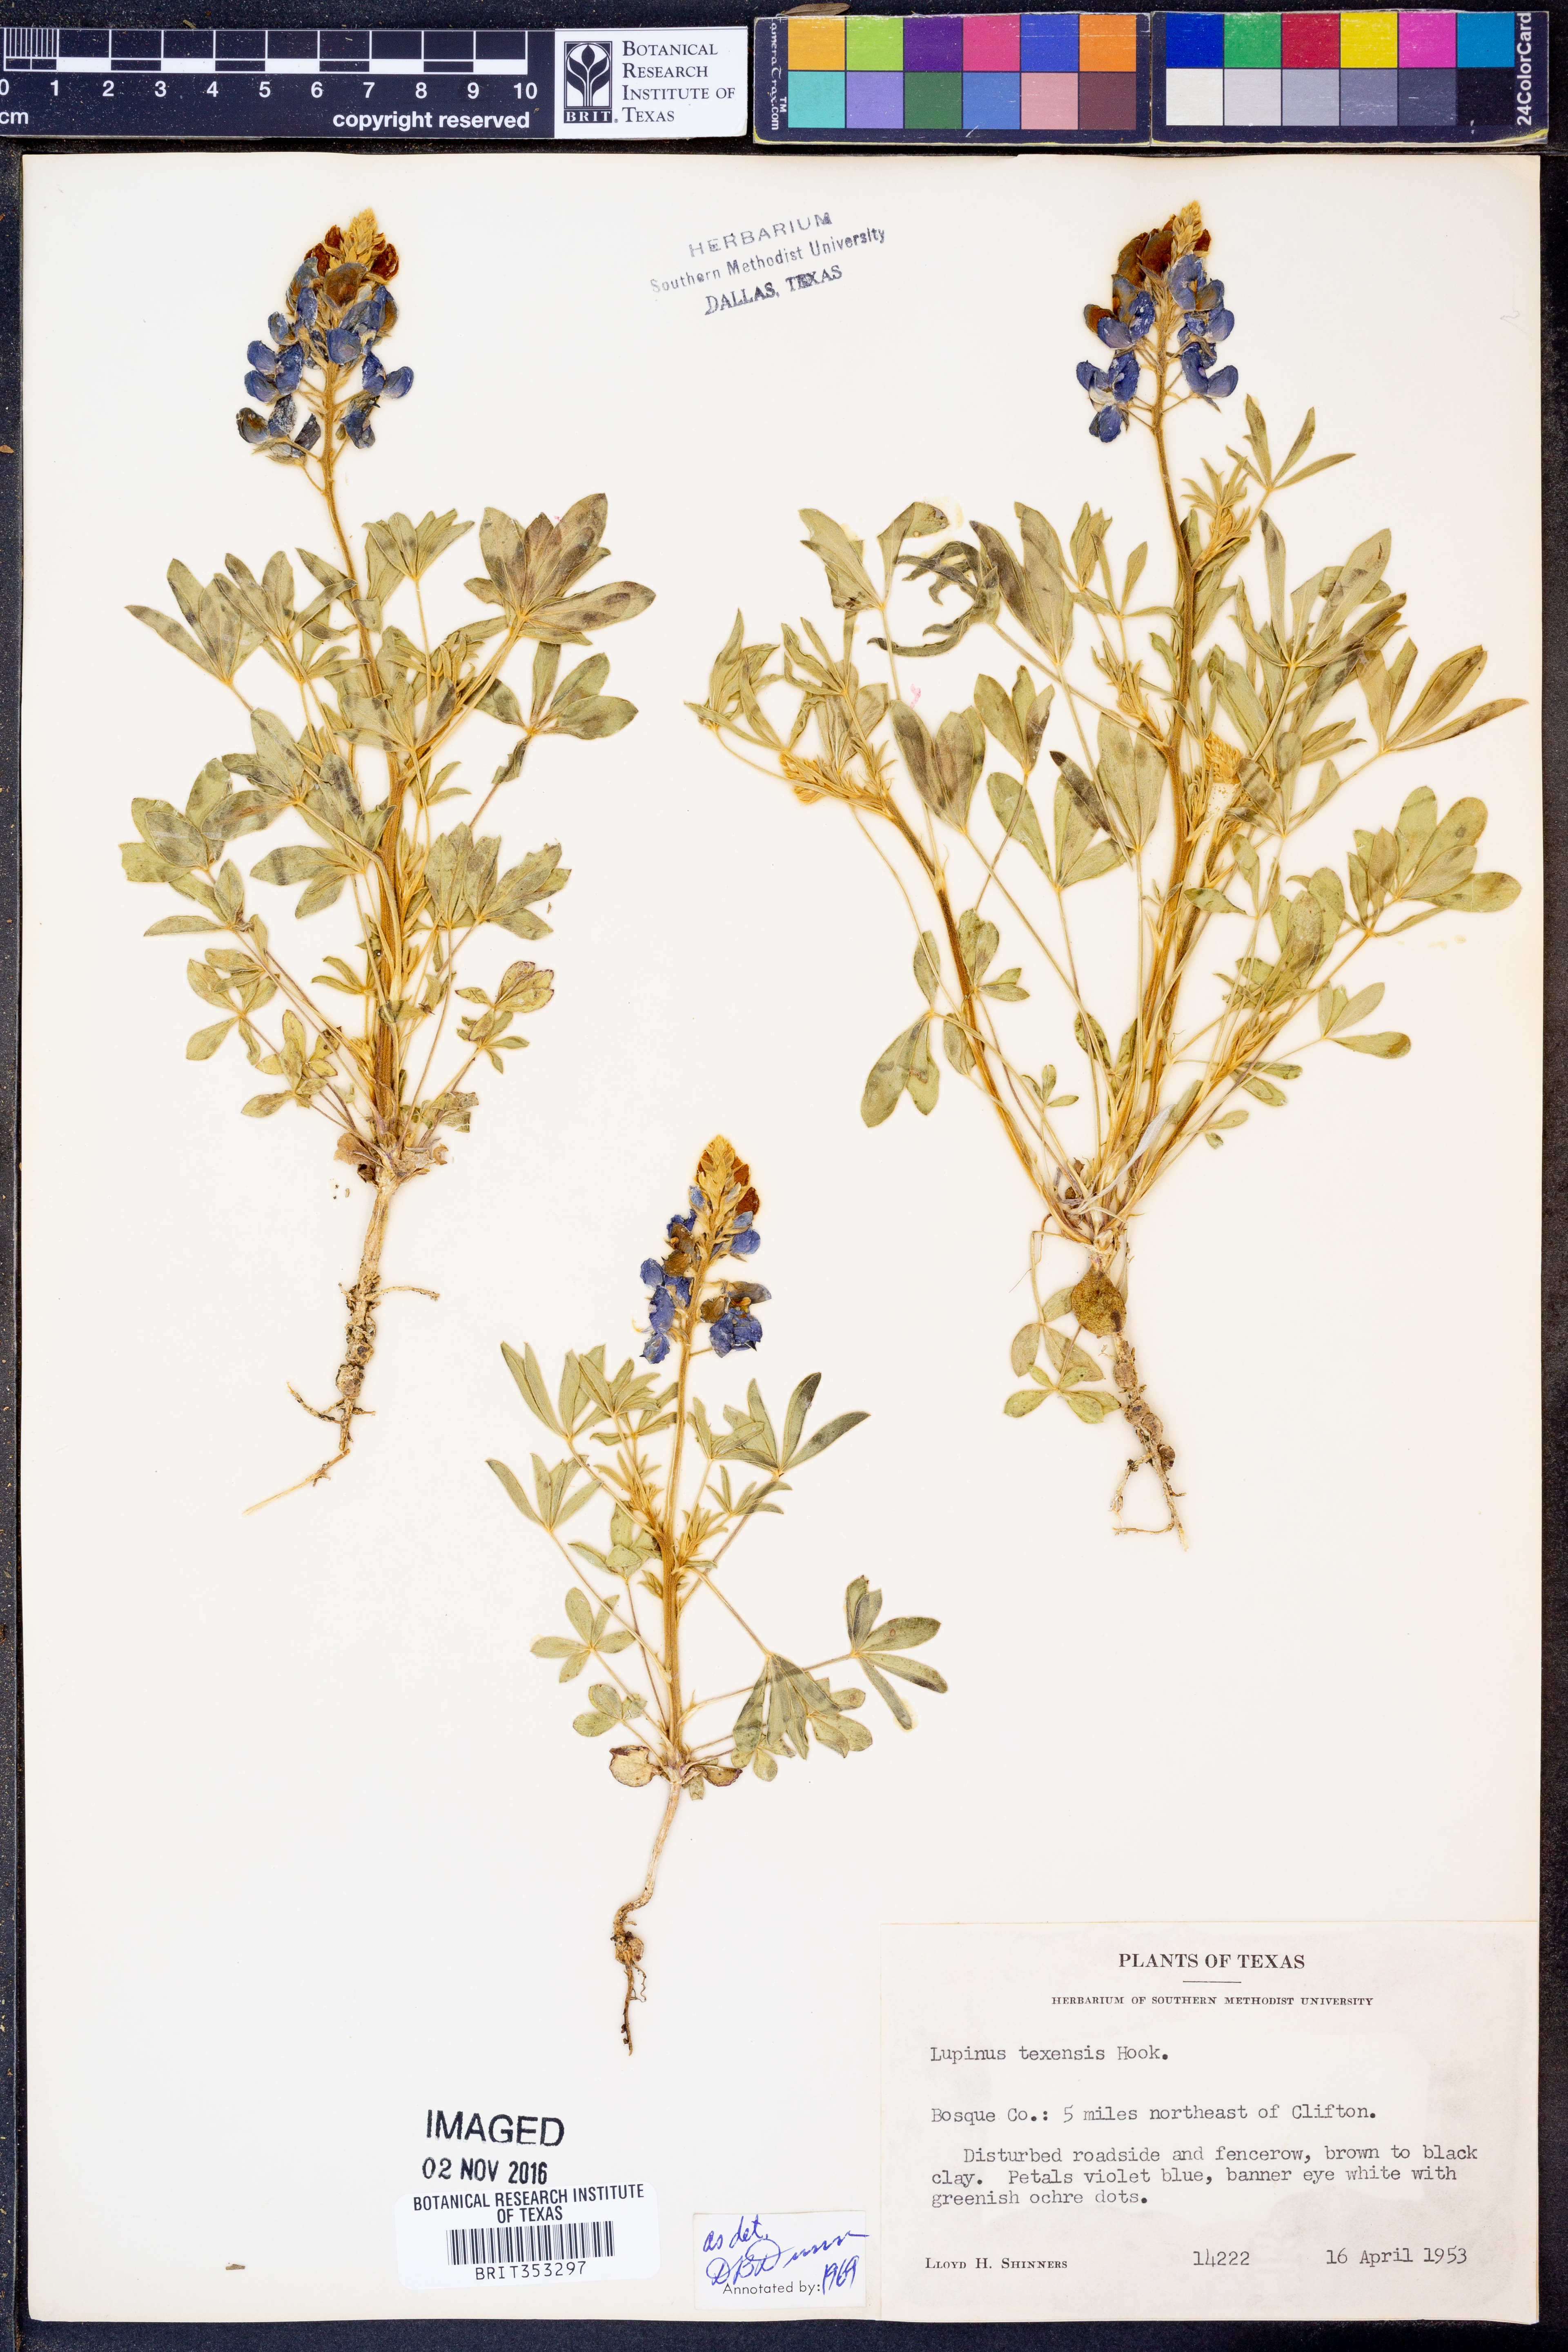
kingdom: Plantae
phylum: Tracheophyta
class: Magnoliopsida
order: Fabales
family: Fabaceae
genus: Lupinus
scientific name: Lupinus texensis
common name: Texas bluebonnet
